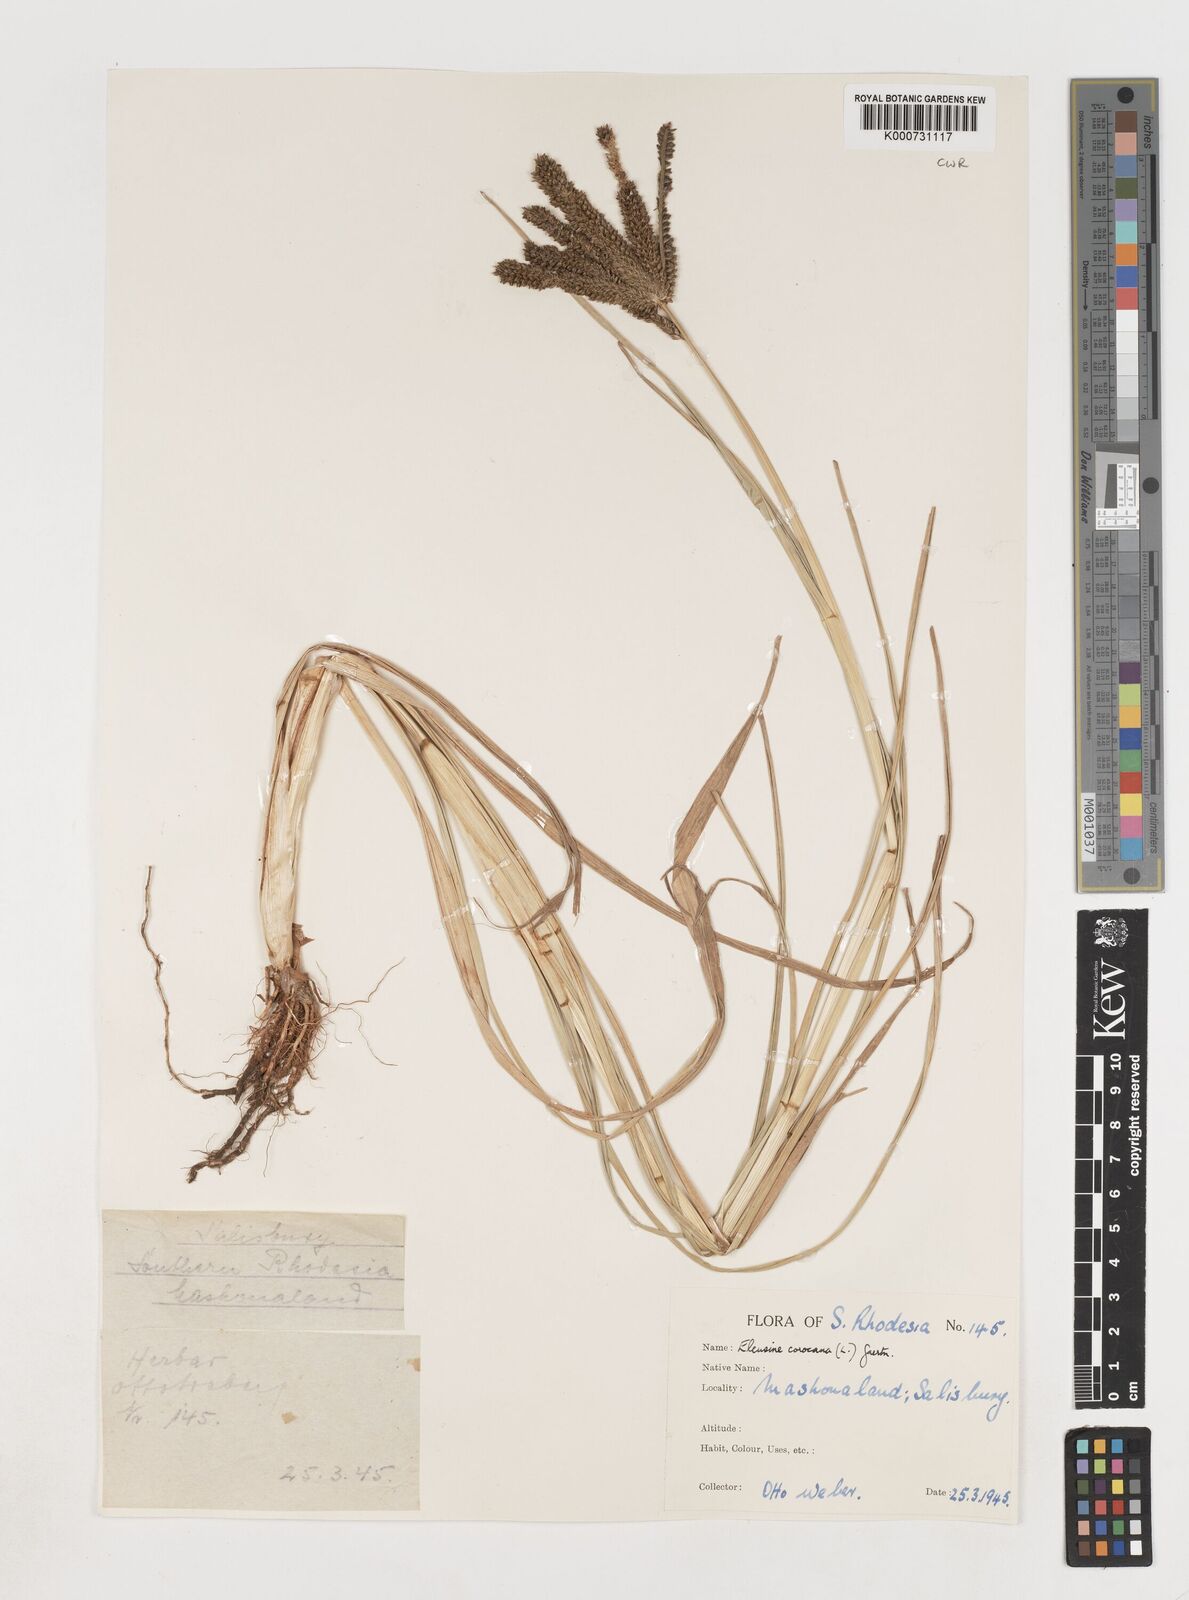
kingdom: Plantae
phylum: Tracheophyta
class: Liliopsida
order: Poales
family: Poaceae
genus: Eleusine
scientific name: Eleusine coracana
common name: Finger millet
